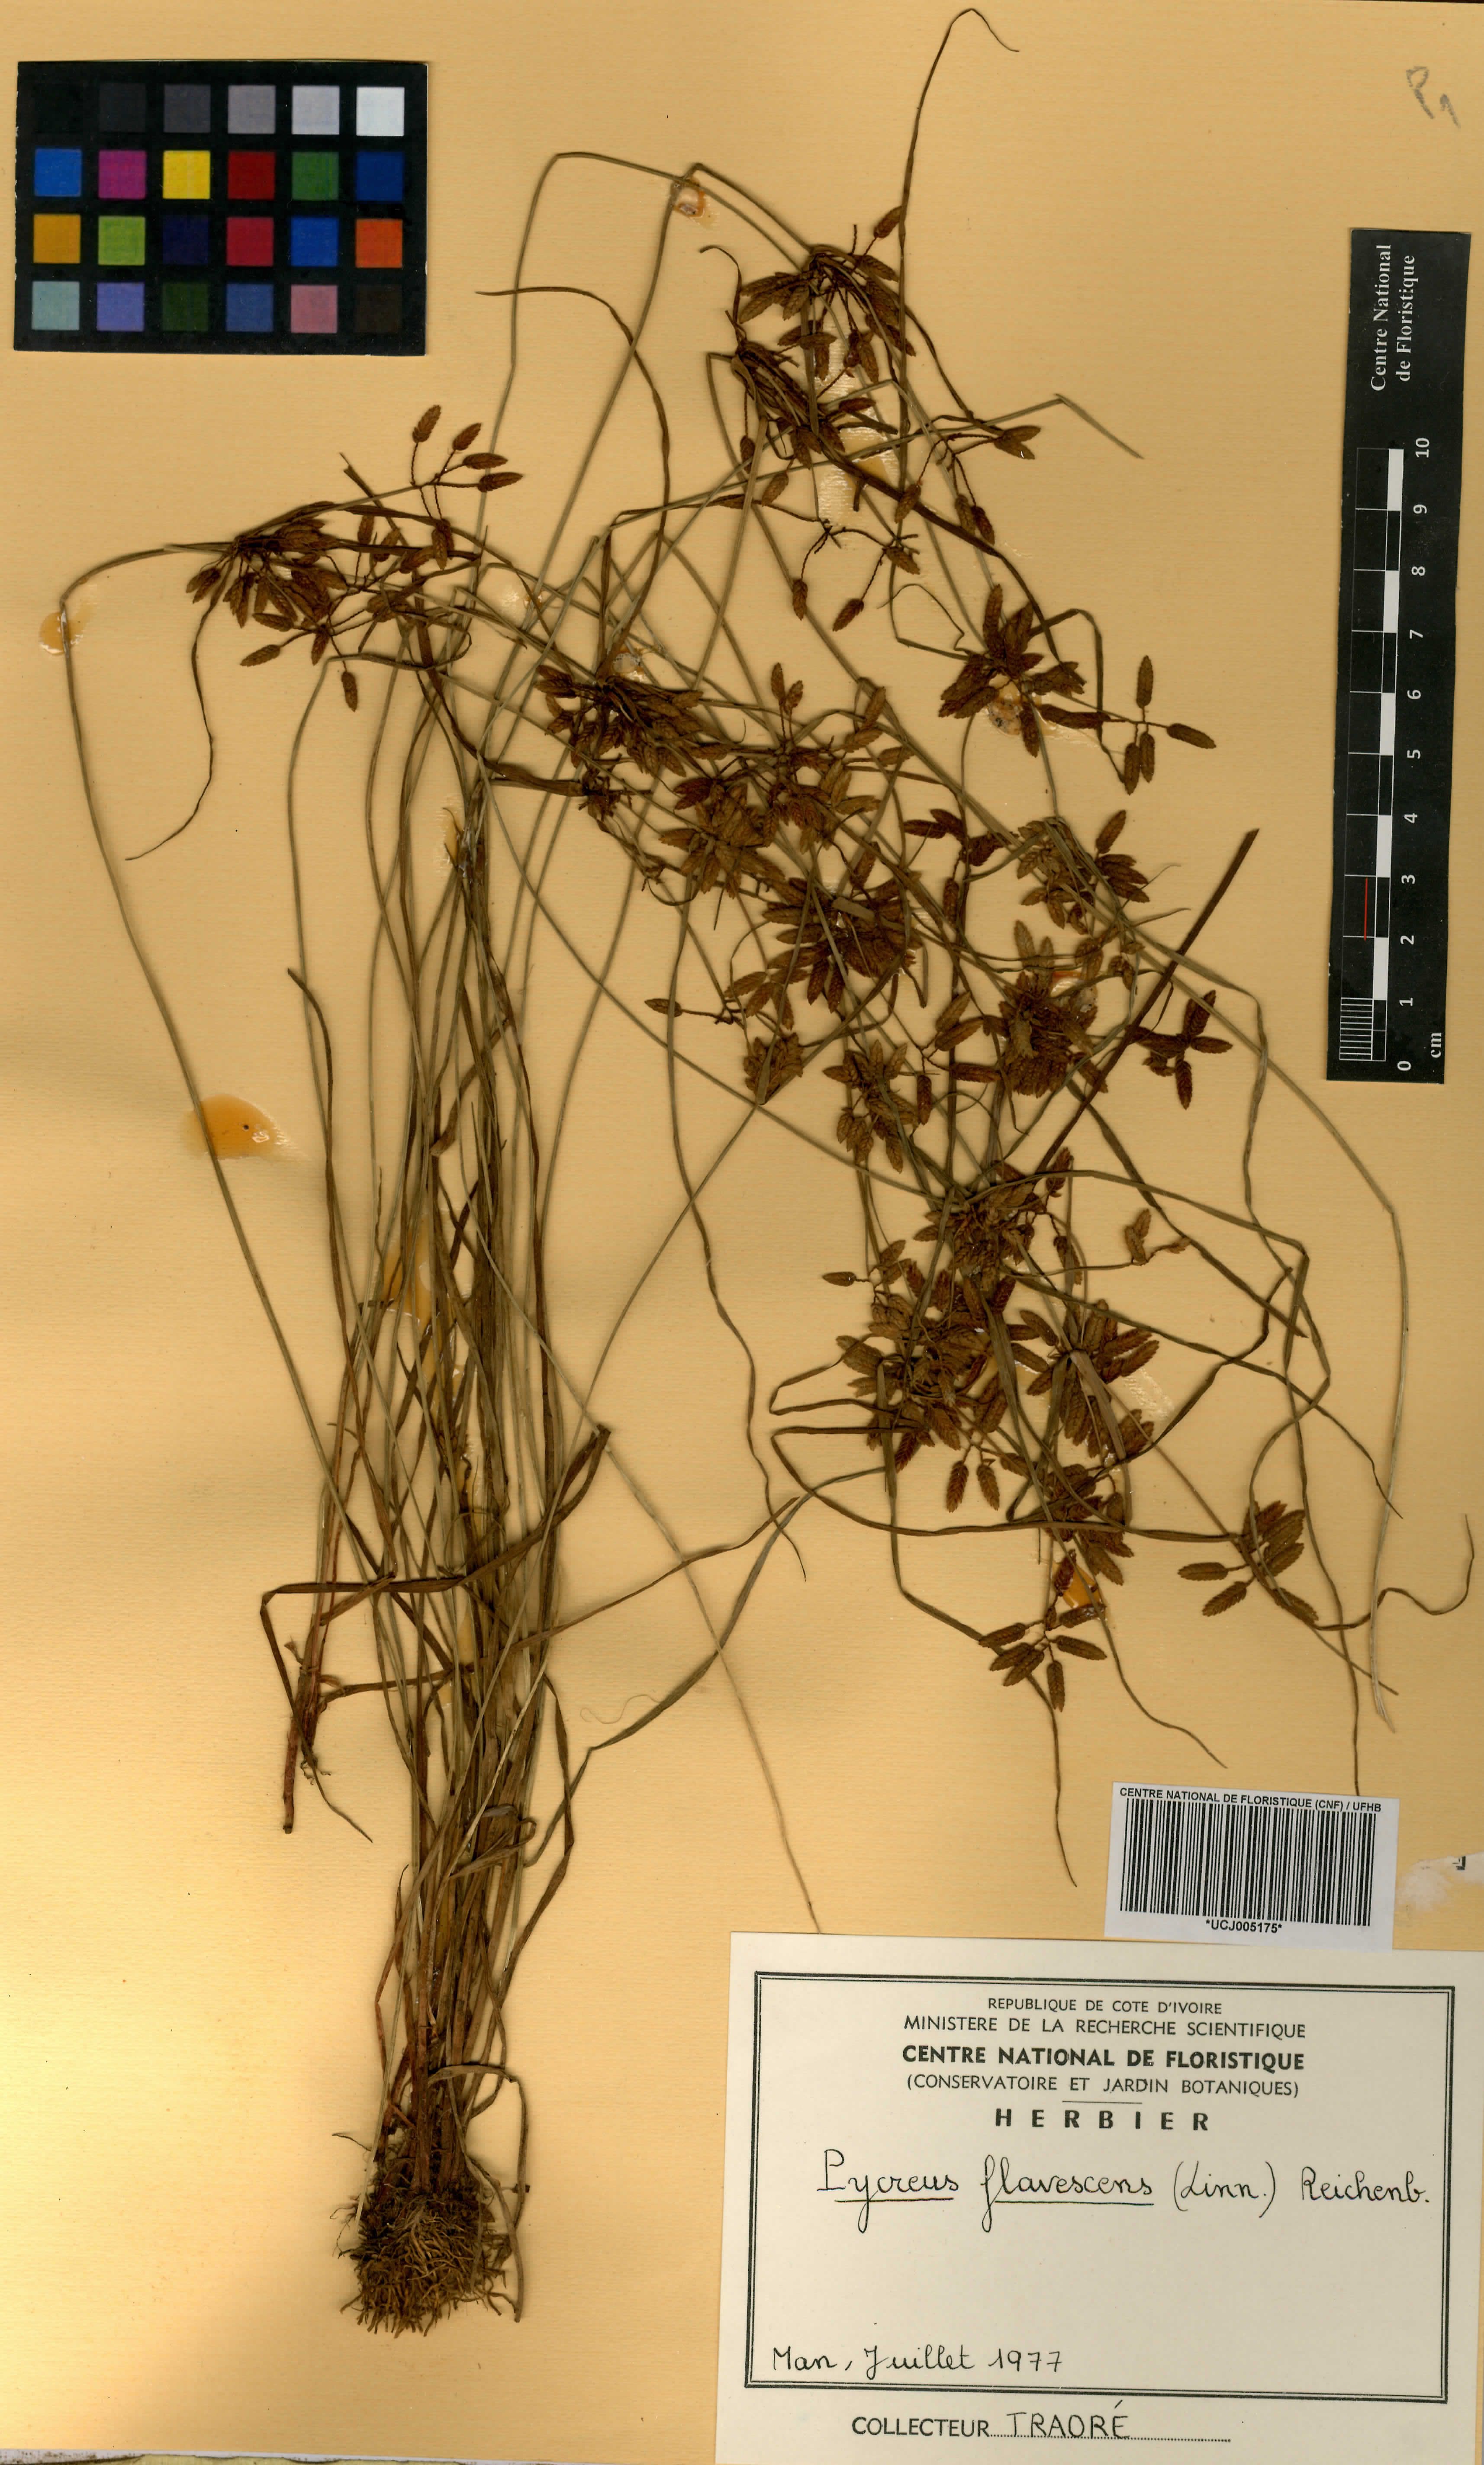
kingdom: Plantae
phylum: Tracheophyta
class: Liliopsida
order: Poales
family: Cyperaceae
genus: Cyperus
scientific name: Cyperus flavescens
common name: Yellow galingale
